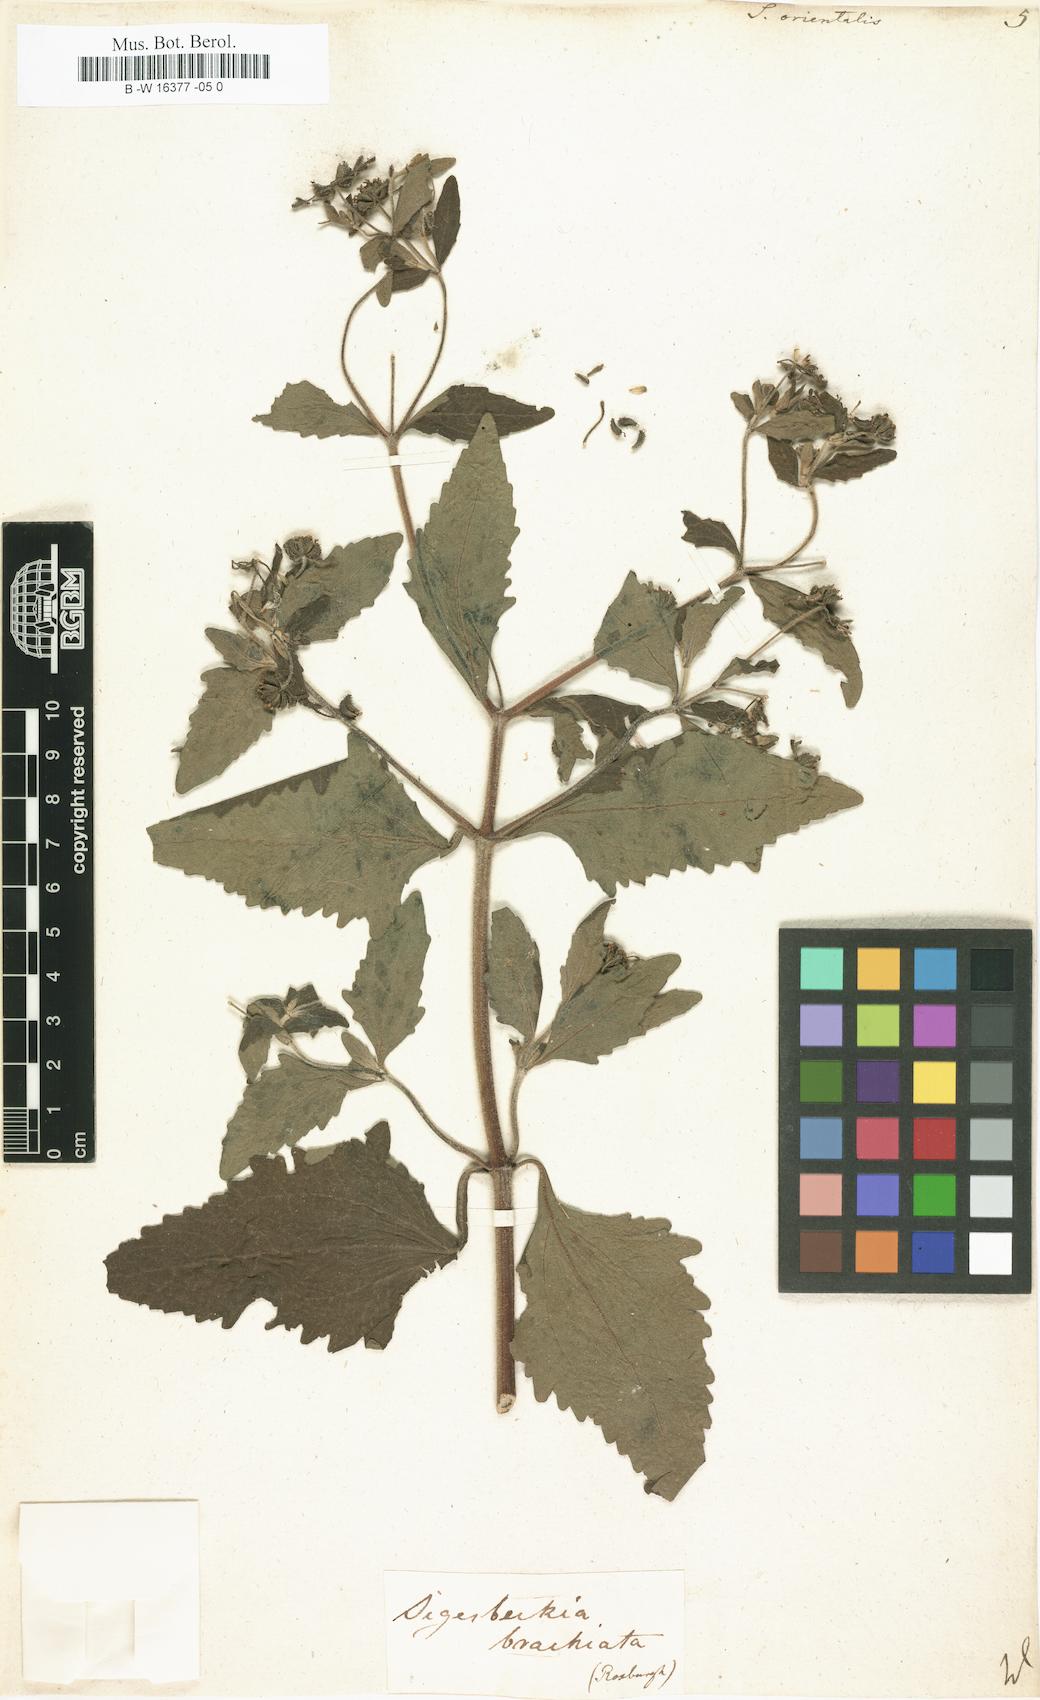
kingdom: Plantae
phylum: Tracheophyta
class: Magnoliopsida
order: Asterales
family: Asteraceae
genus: Sigesbeckia
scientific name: Sigesbeckia orientalis
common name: Eastern st paul's-wort
